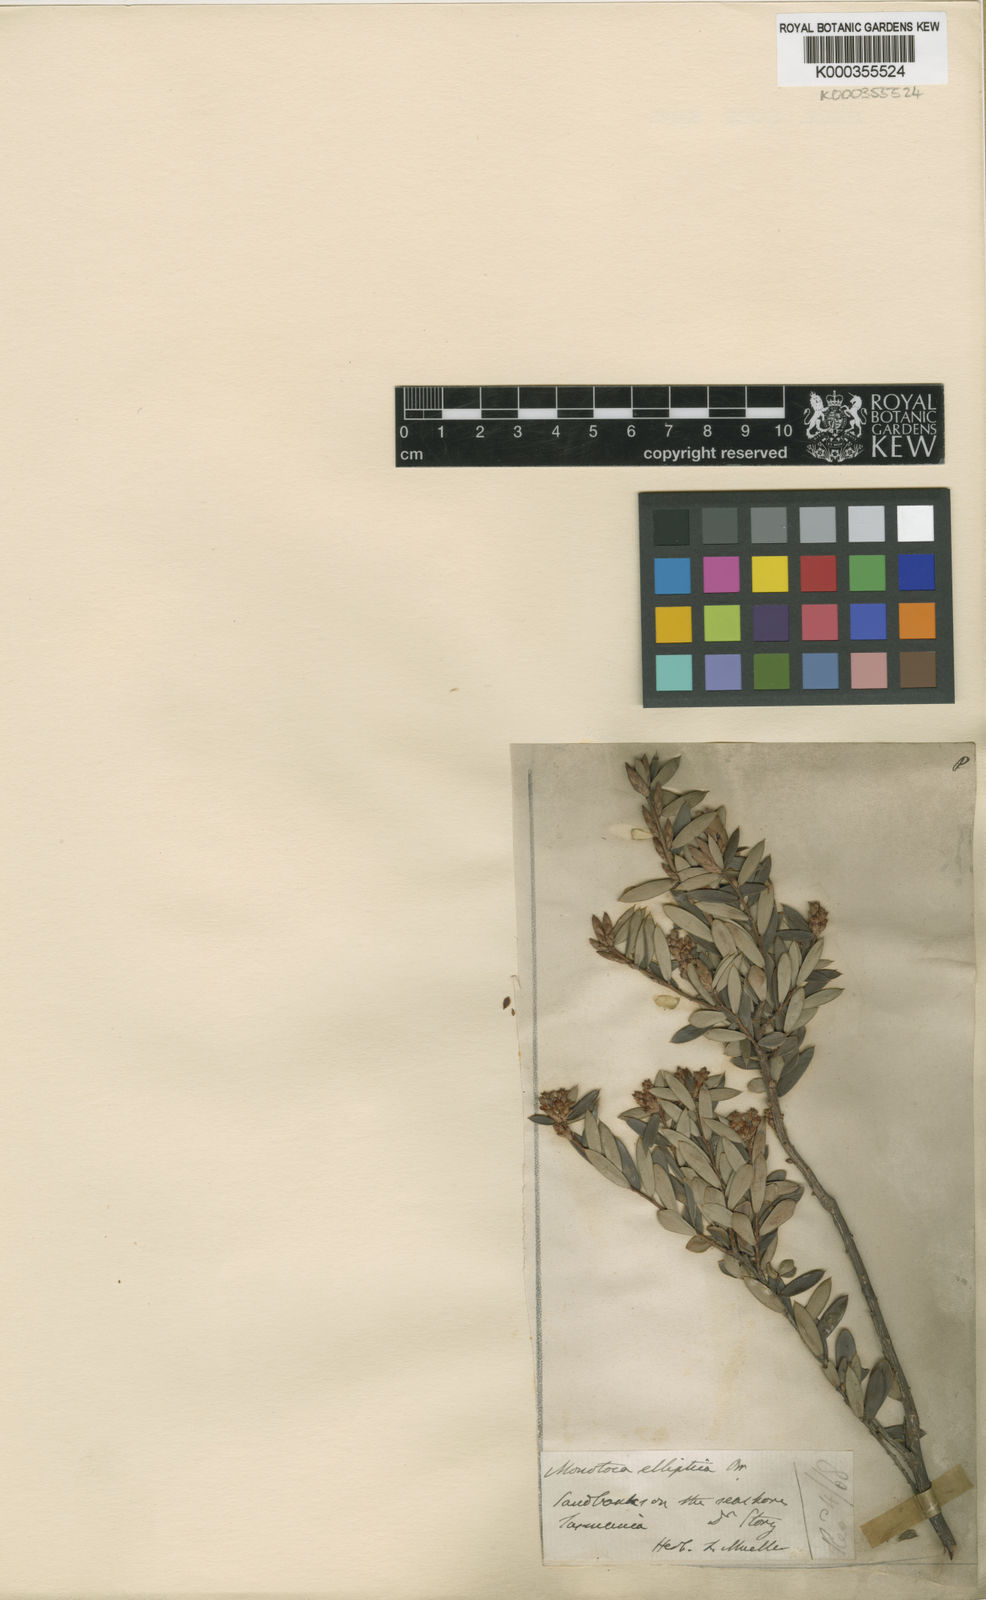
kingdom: Plantae
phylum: Tracheophyta
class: Magnoliopsida
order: Ericales
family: Ericaceae
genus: Monotoca
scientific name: Monotoca elliptica
